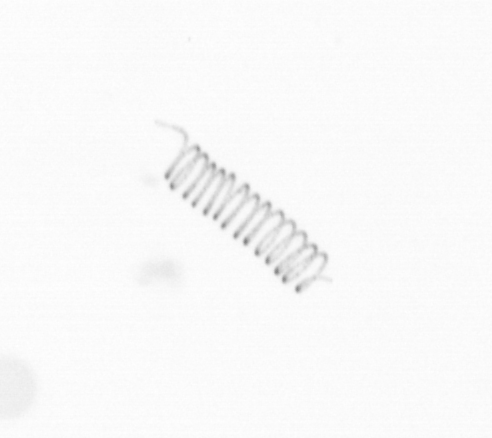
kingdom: Chromista
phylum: Ochrophyta
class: Bacillariophyceae
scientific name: Bacillariophyceae
